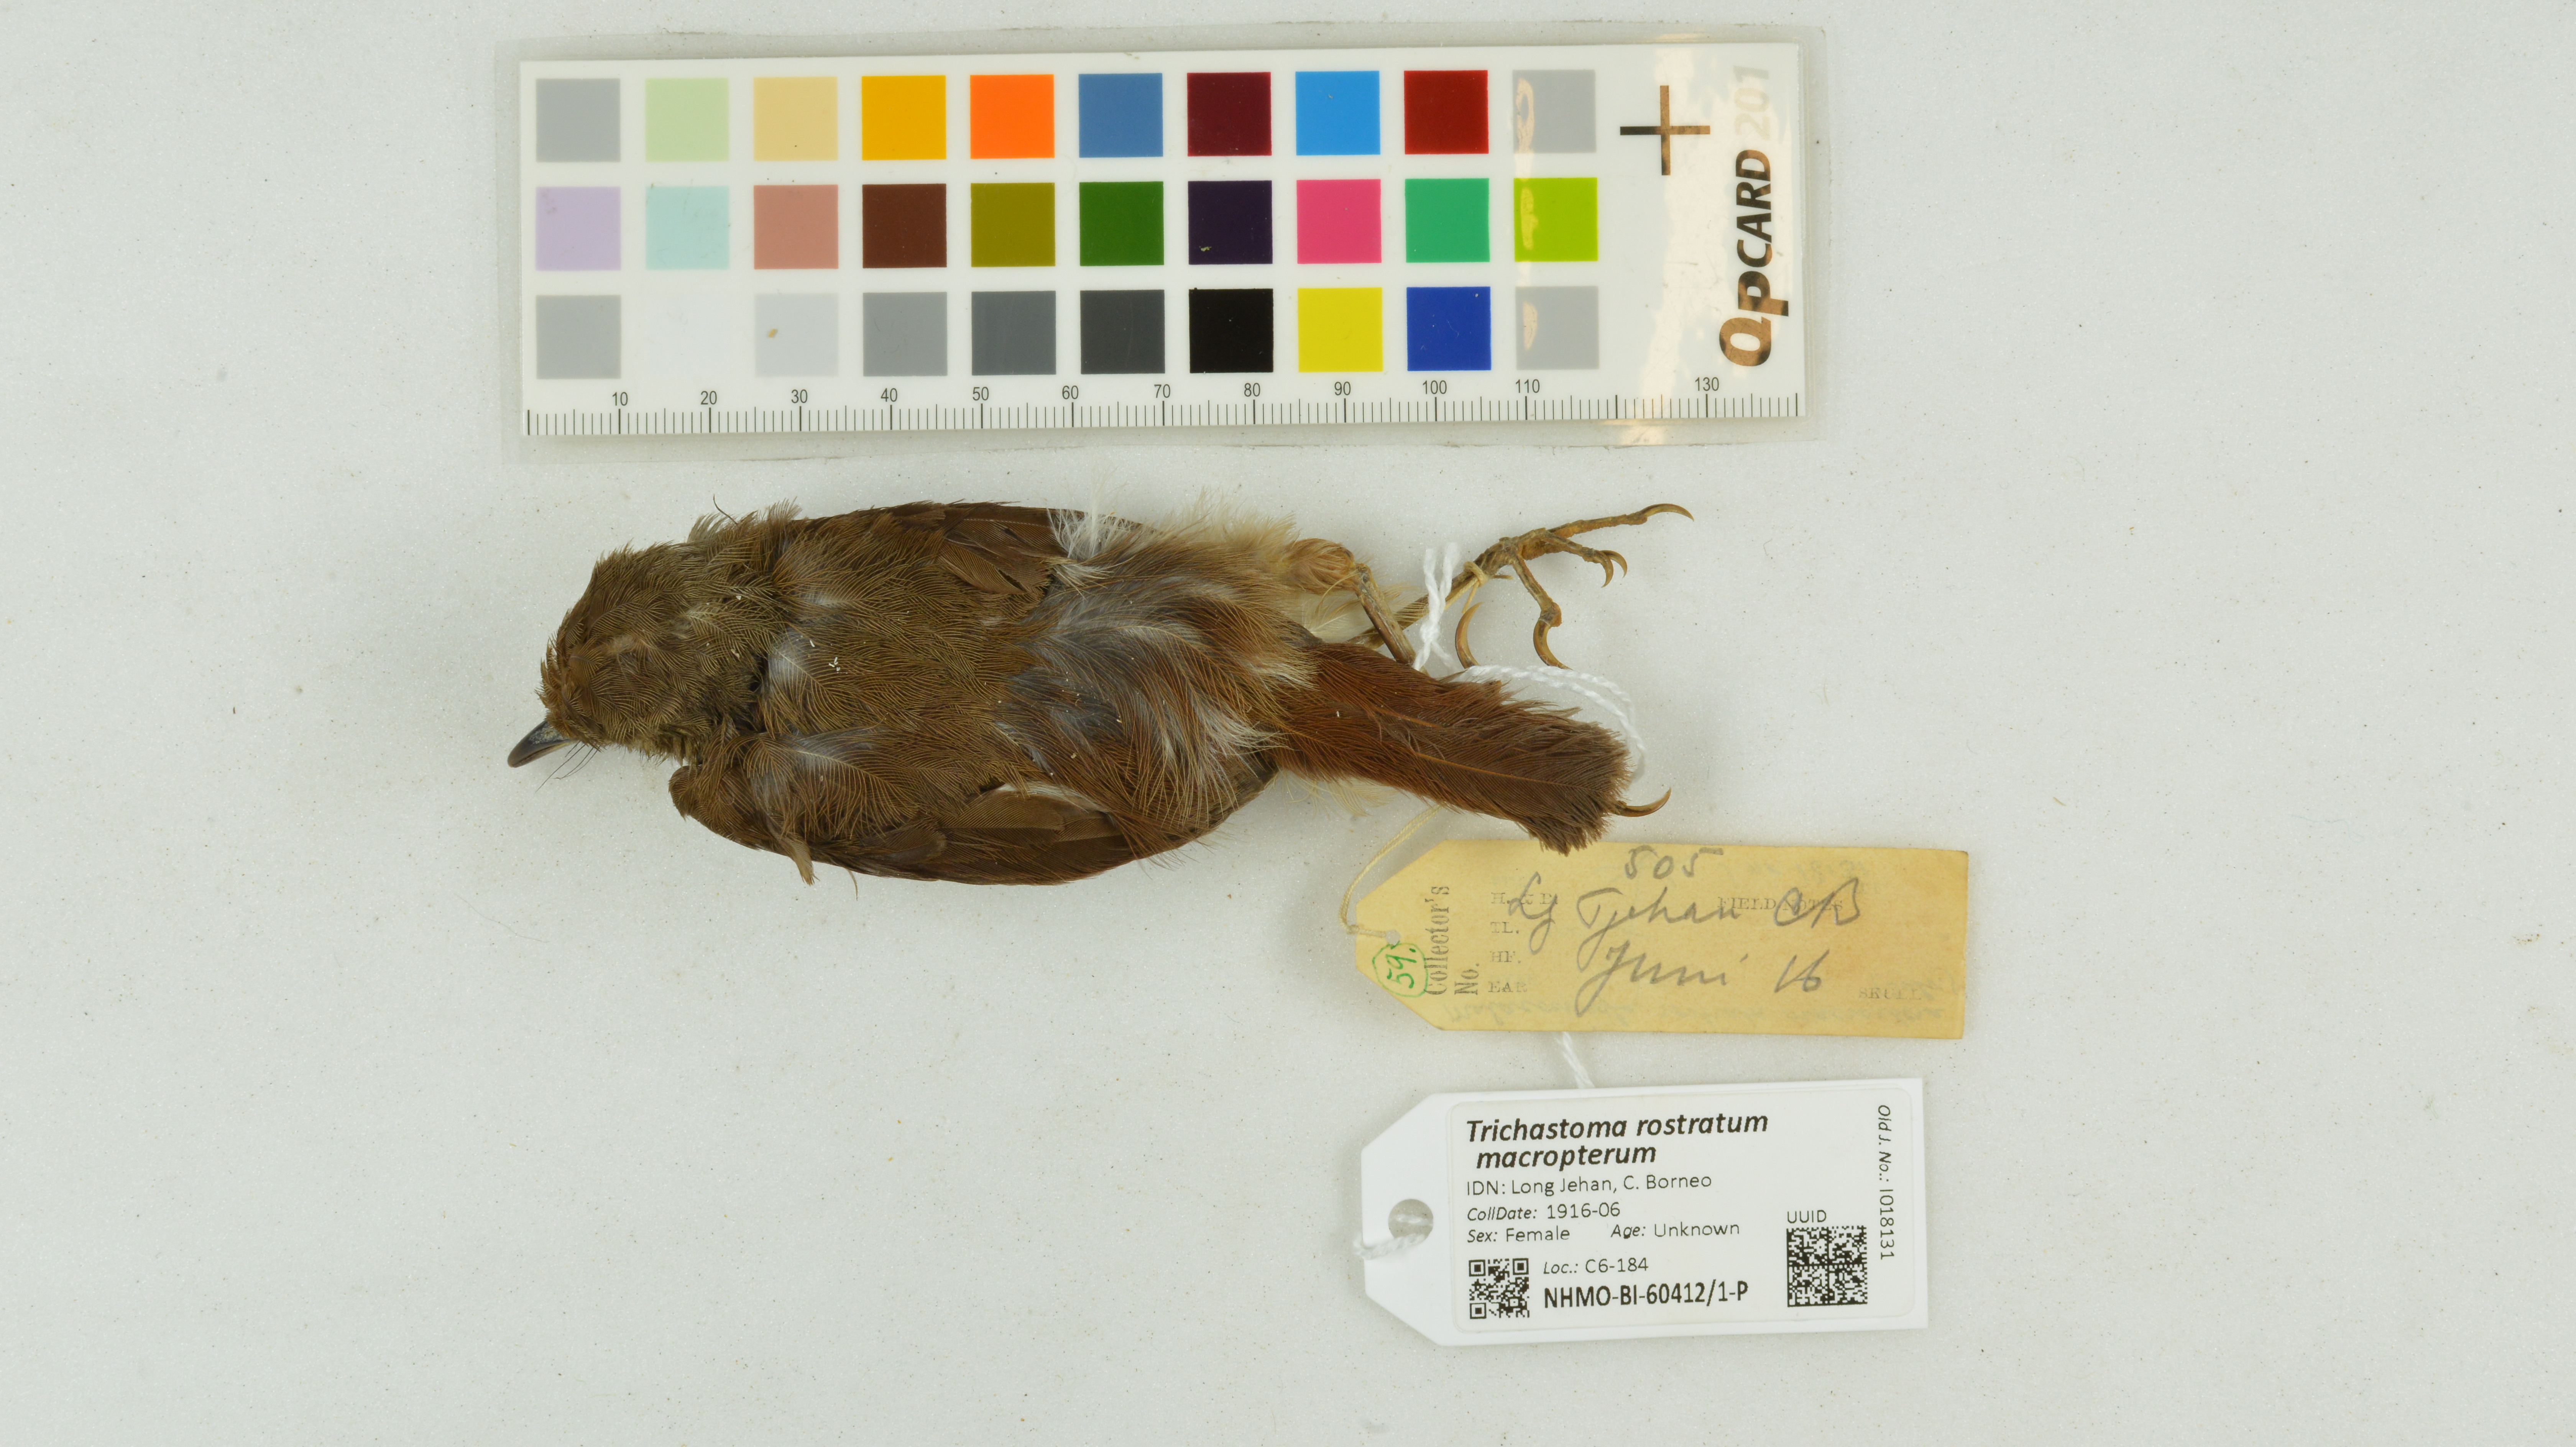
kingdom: Animalia
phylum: Chordata
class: Aves
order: Passeriformes
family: Pellorneidae
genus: Trichastoma
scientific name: Trichastoma rostratum
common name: White-chested babbler
